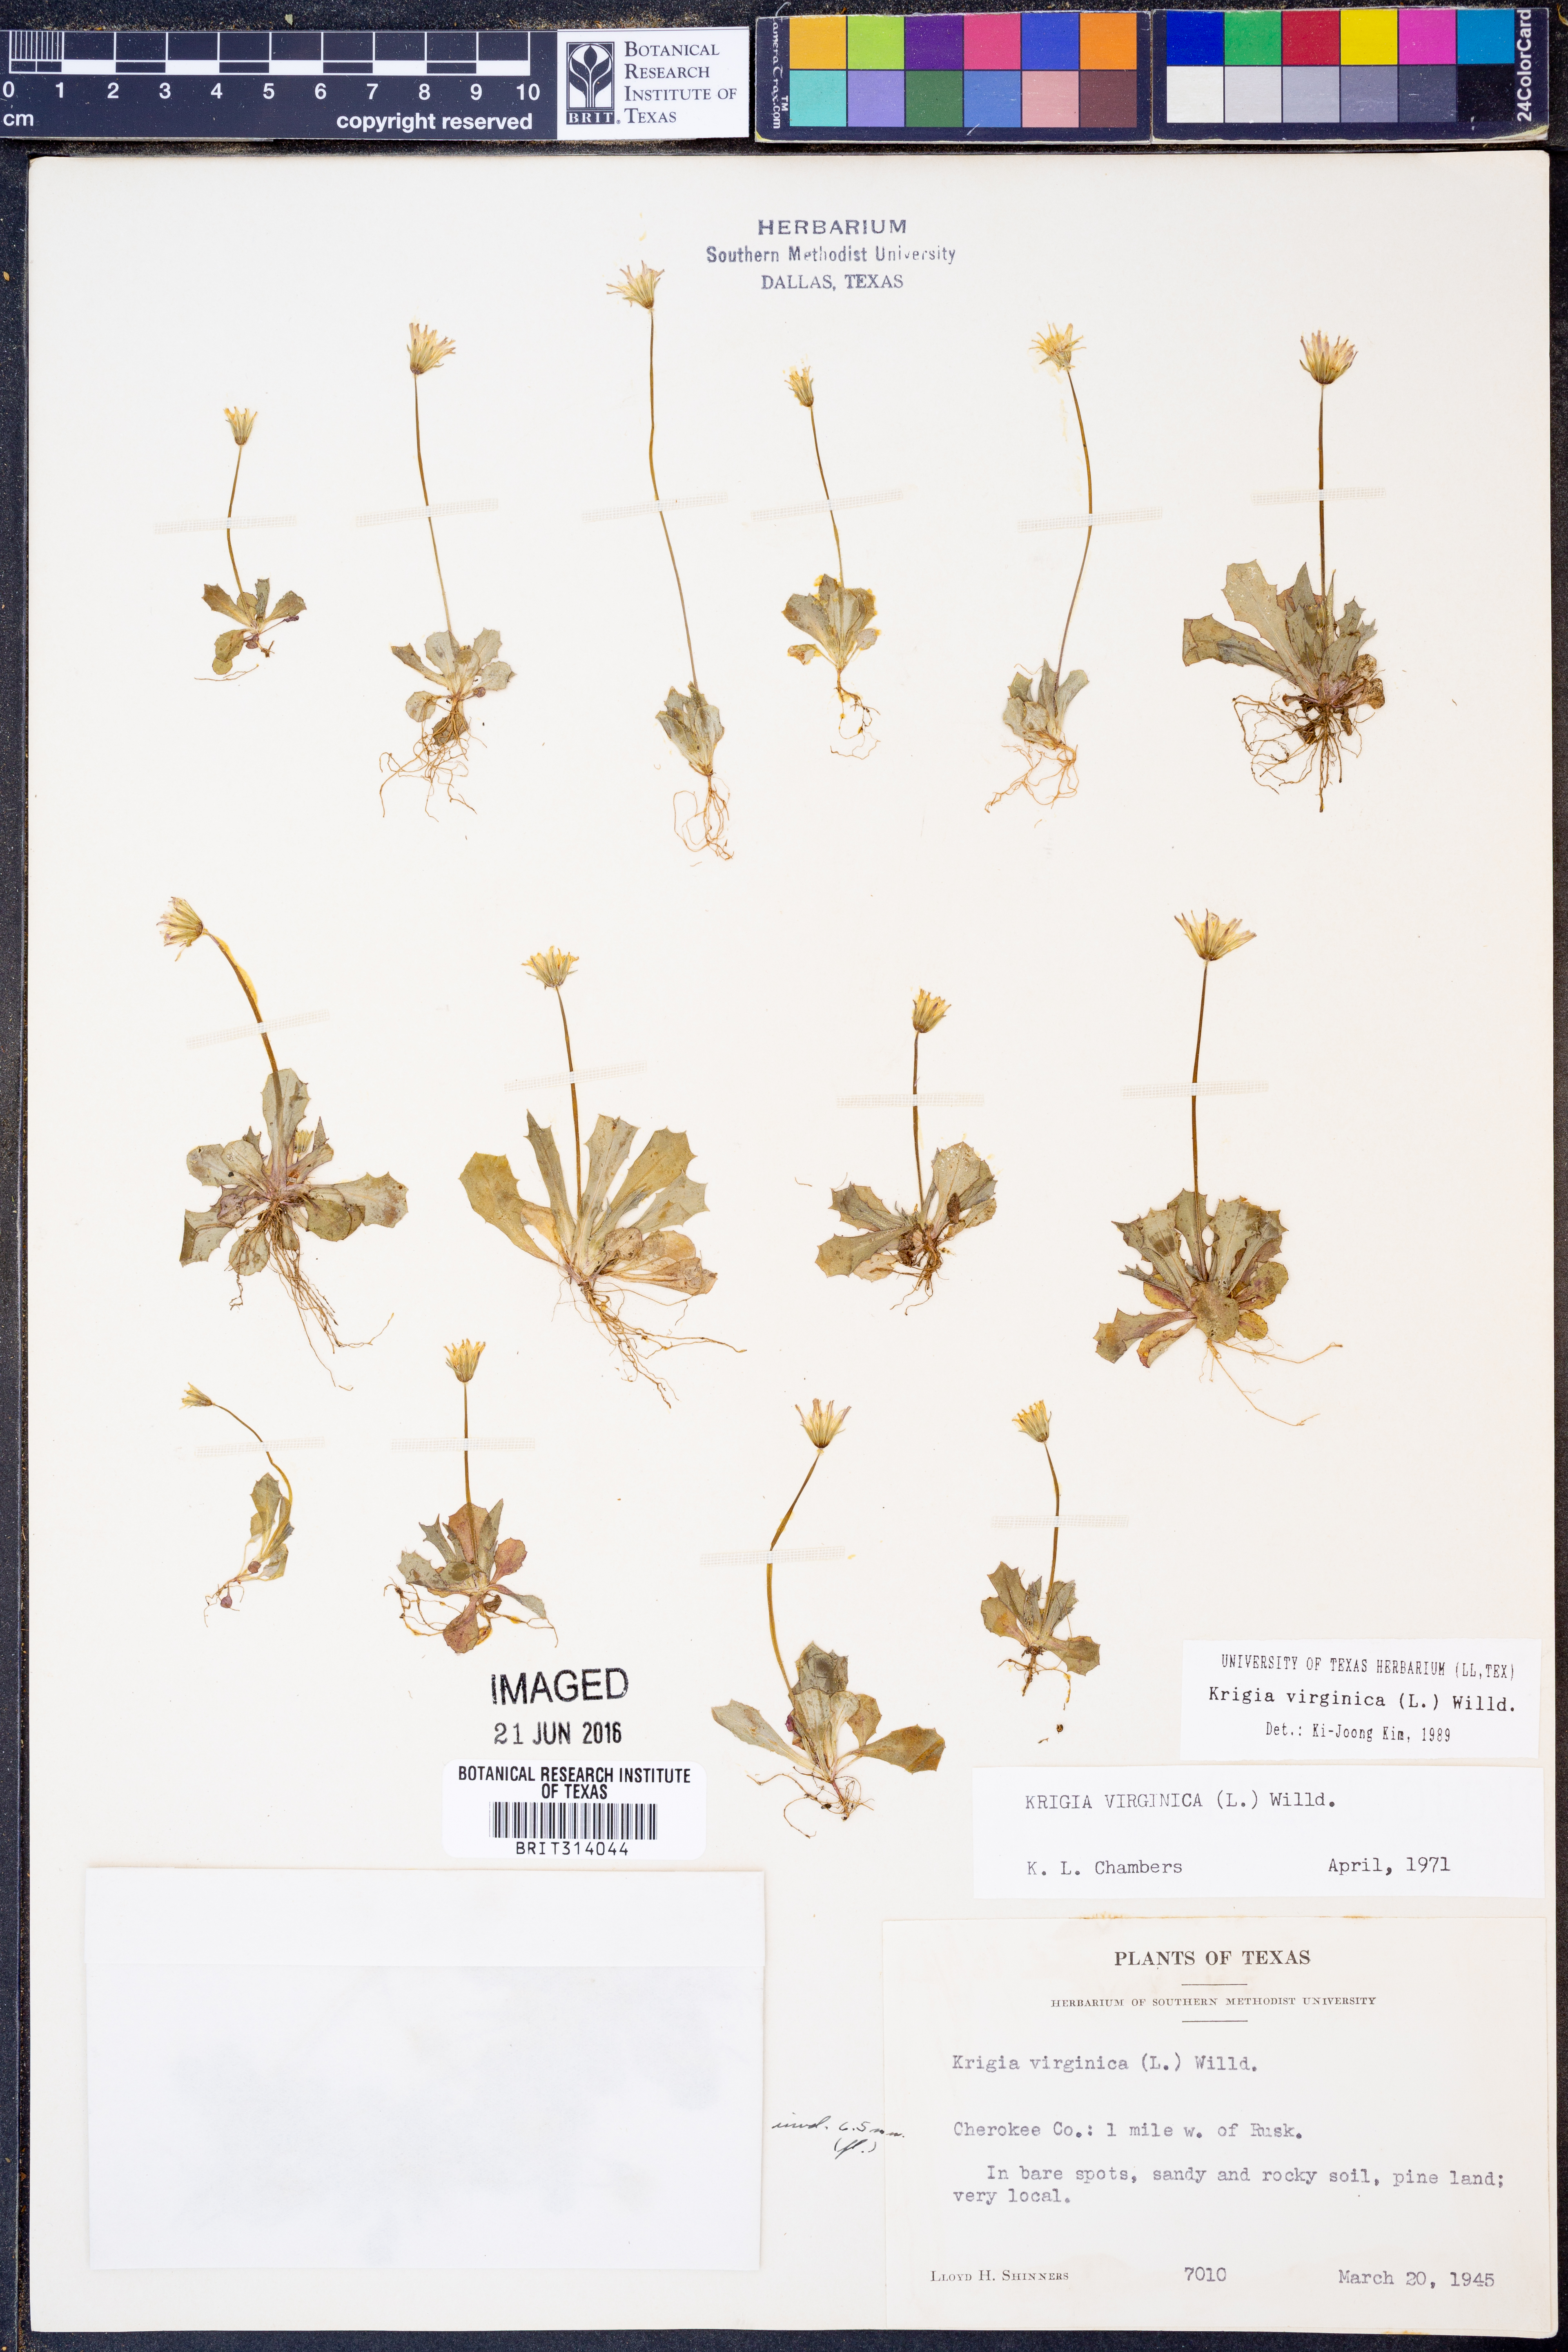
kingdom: Plantae
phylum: Tracheophyta
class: Magnoliopsida
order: Asterales
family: Asteraceae
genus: Krigia
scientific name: Krigia virginica
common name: Virginia dwarf-dandelion
